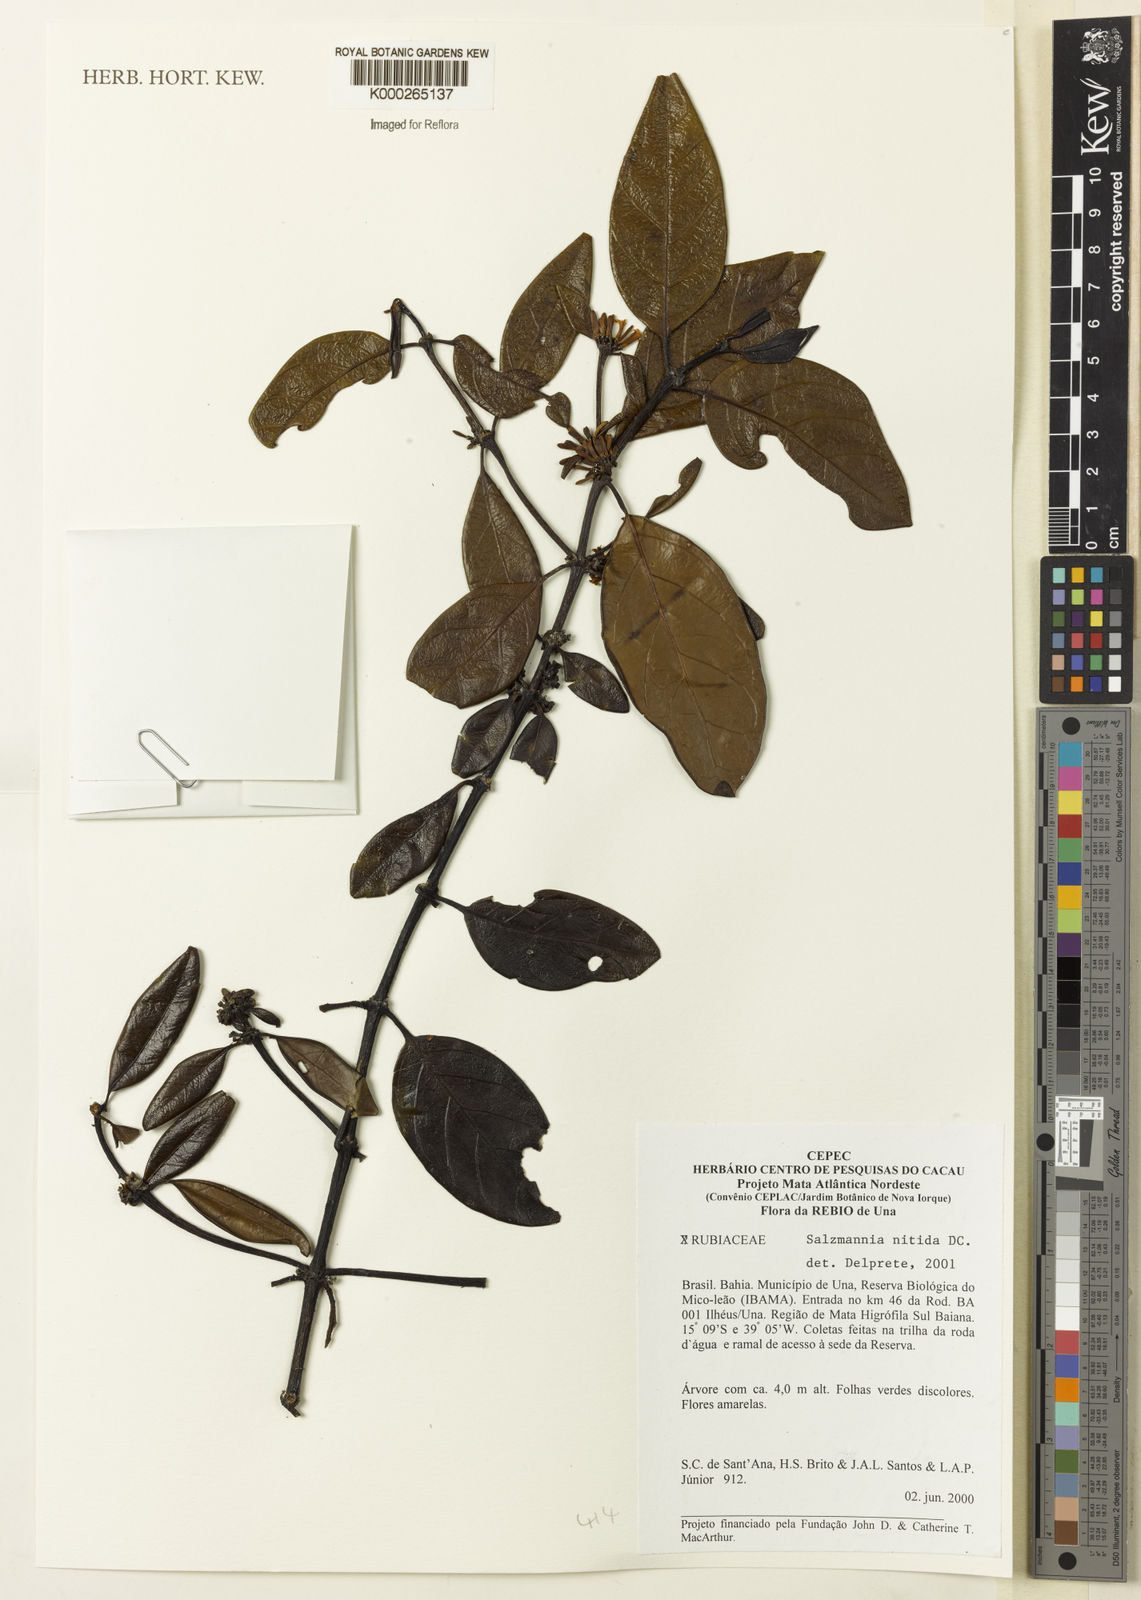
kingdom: Plantae
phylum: Tracheophyta
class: Magnoliopsida
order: Gentianales
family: Rubiaceae
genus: Salzmannia
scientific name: Salzmannia nitida
